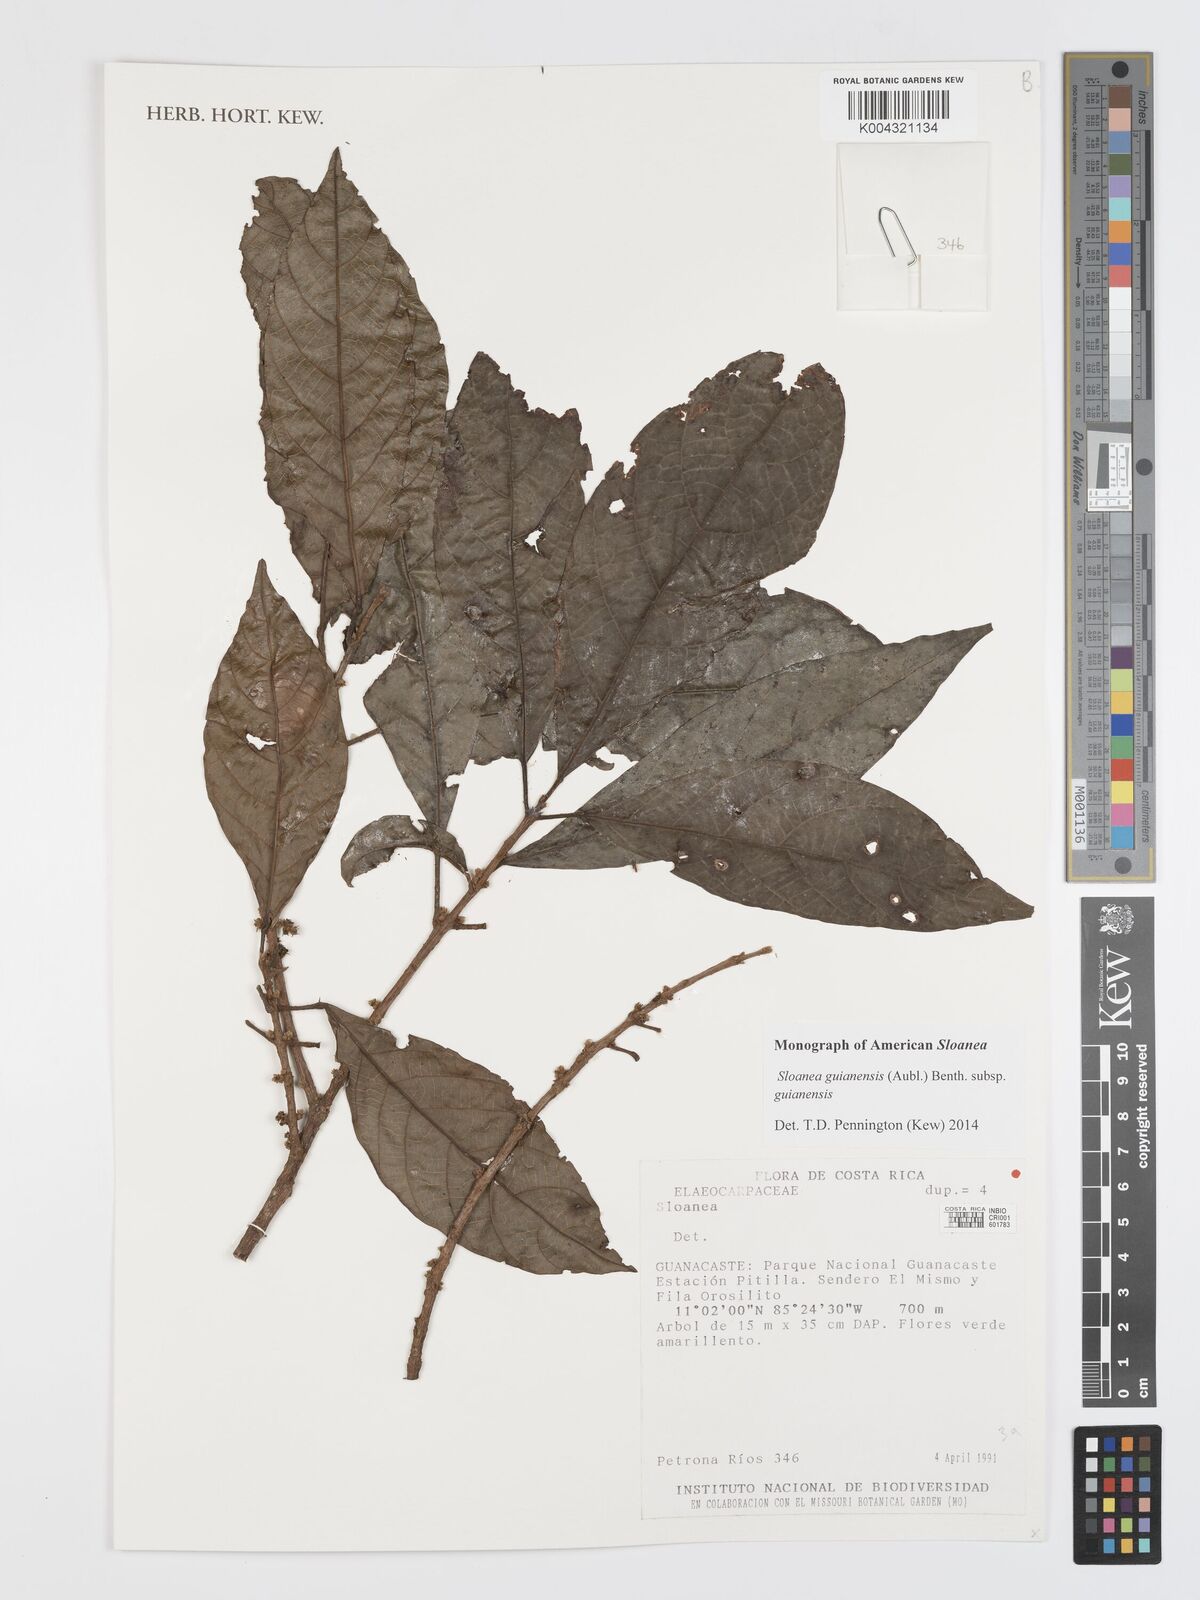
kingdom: Plantae
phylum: Tracheophyta
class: Magnoliopsida
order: Oxalidales
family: Elaeocarpaceae
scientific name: Elaeocarpaceae
